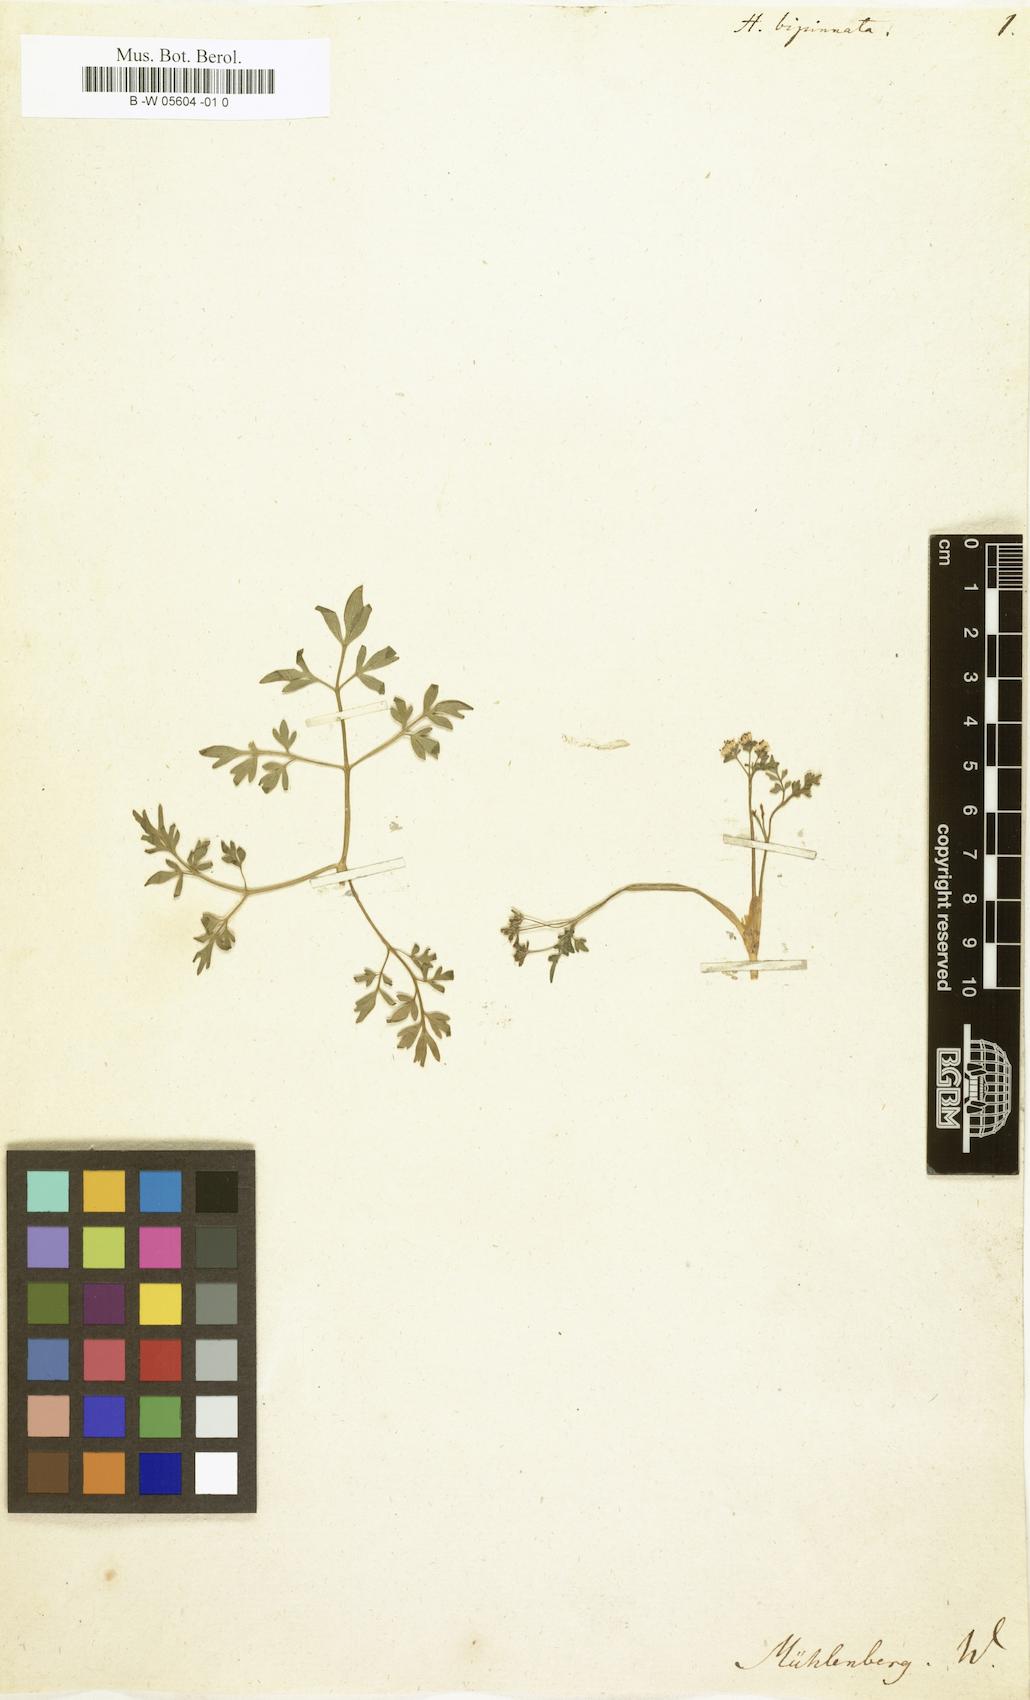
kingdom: Plantae
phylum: Tracheophyta
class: Magnoliopsida
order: Apiales
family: Apiaceae
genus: Erigenia
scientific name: Erigenia bulbosa
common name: Pepper-and-salt
